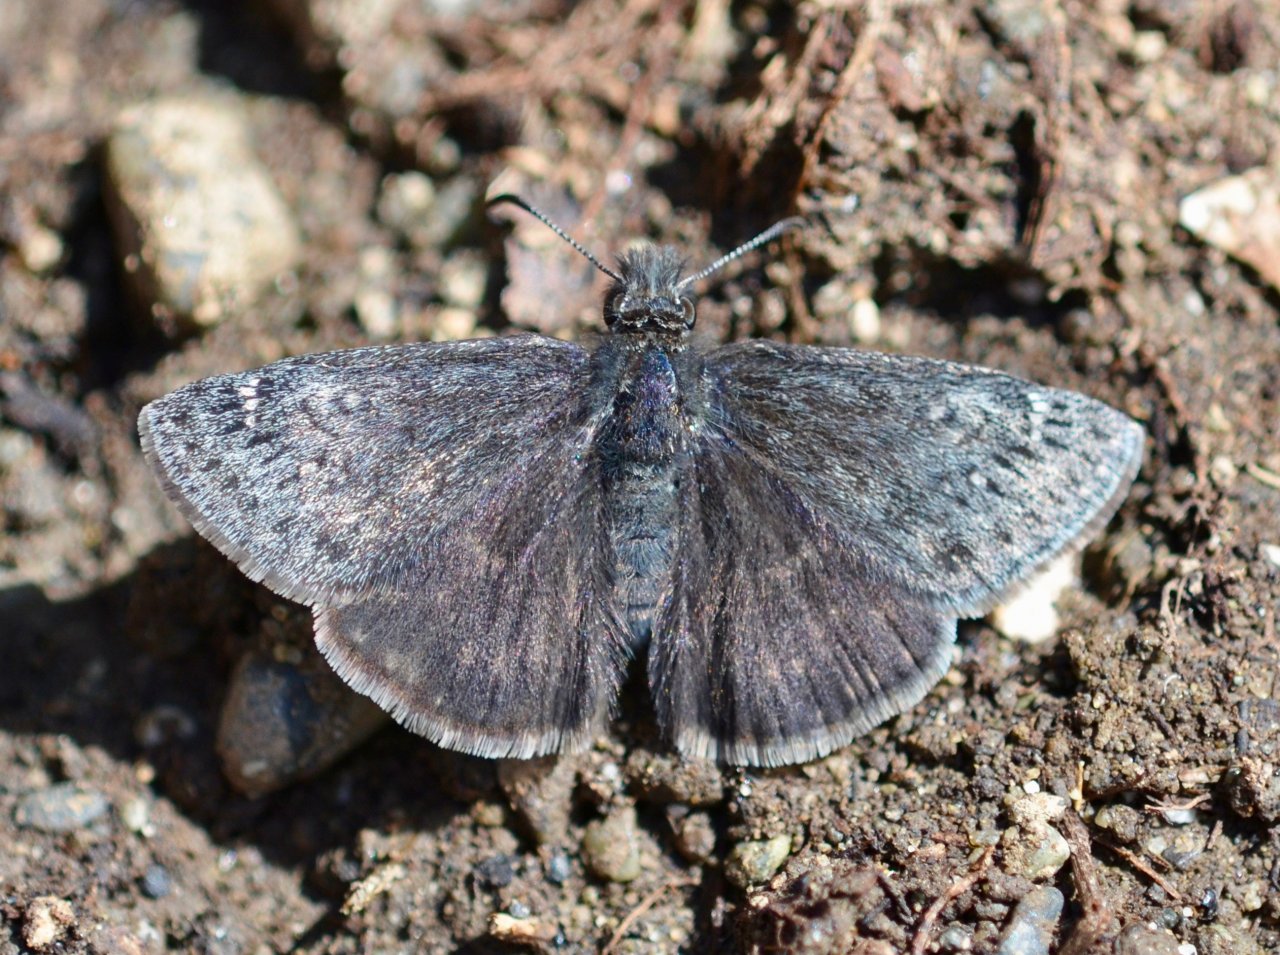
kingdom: Animalia
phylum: Arthropoda
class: Insecta
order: Lepidoptera
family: Hesperiidae
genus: Gesta
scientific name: Gesta
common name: Persius Duskywing
